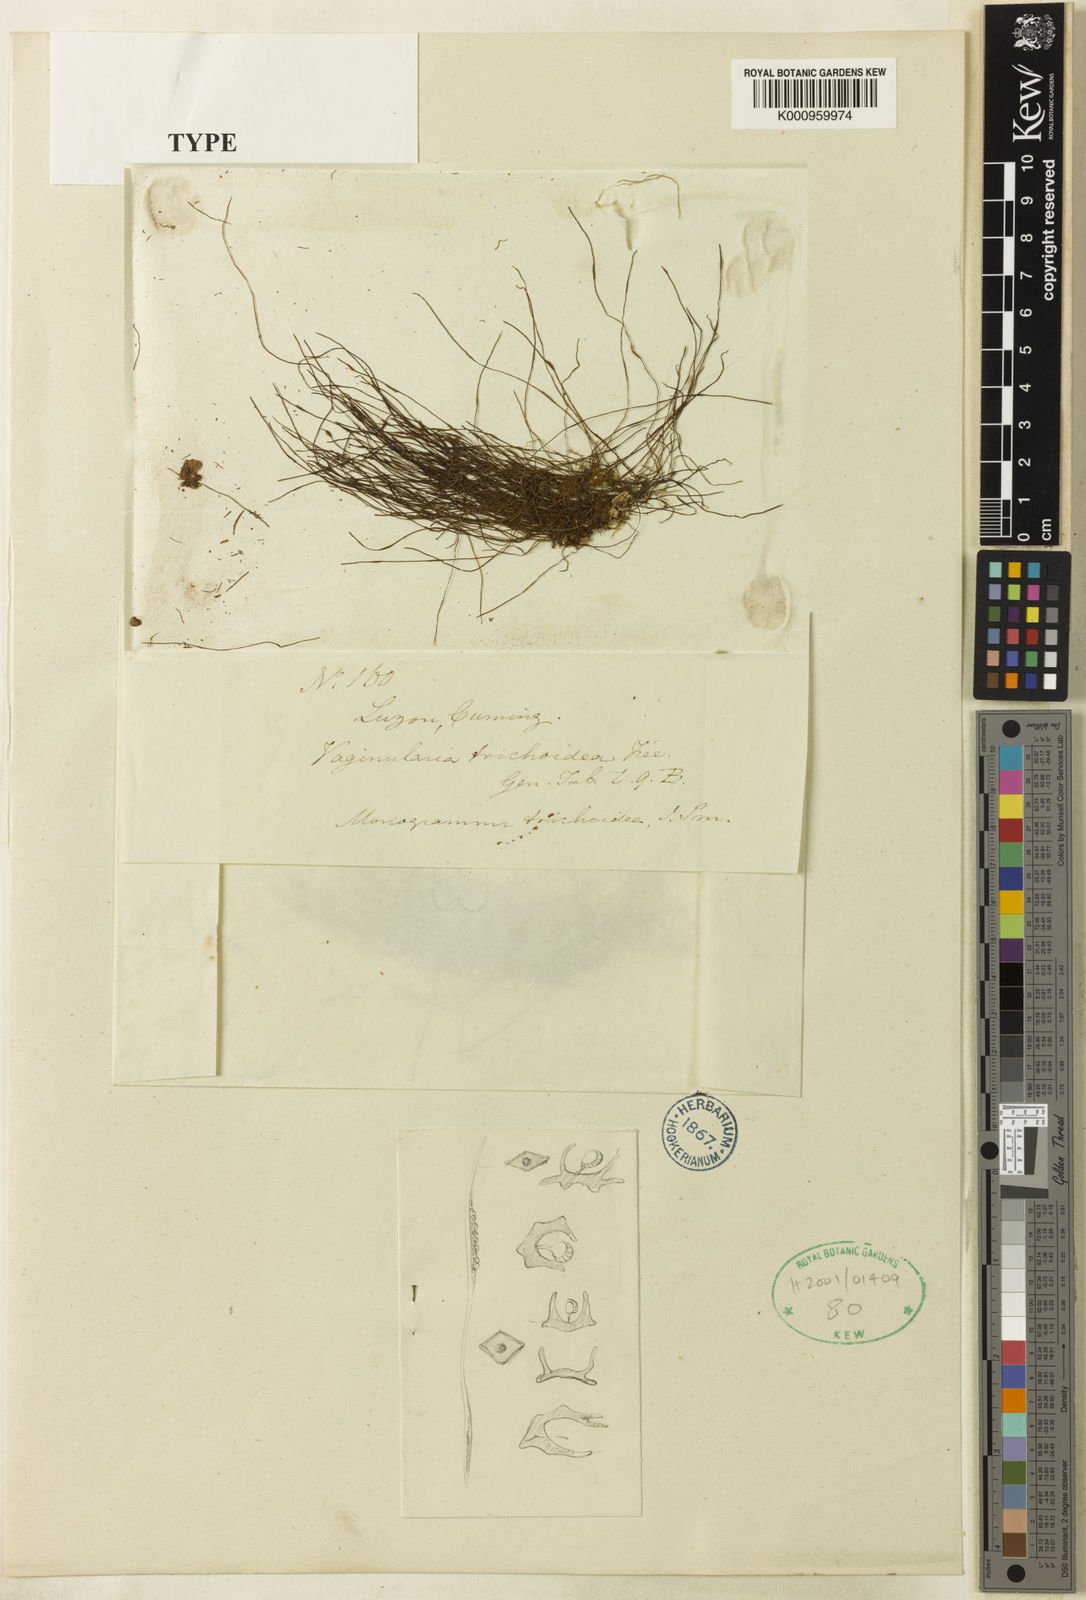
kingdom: Plantae
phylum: Tracheophyta
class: Polypodiopsida
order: Polypodiales
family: Pteridaceae
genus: Vaginularia
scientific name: Vaginularia trichoidea
